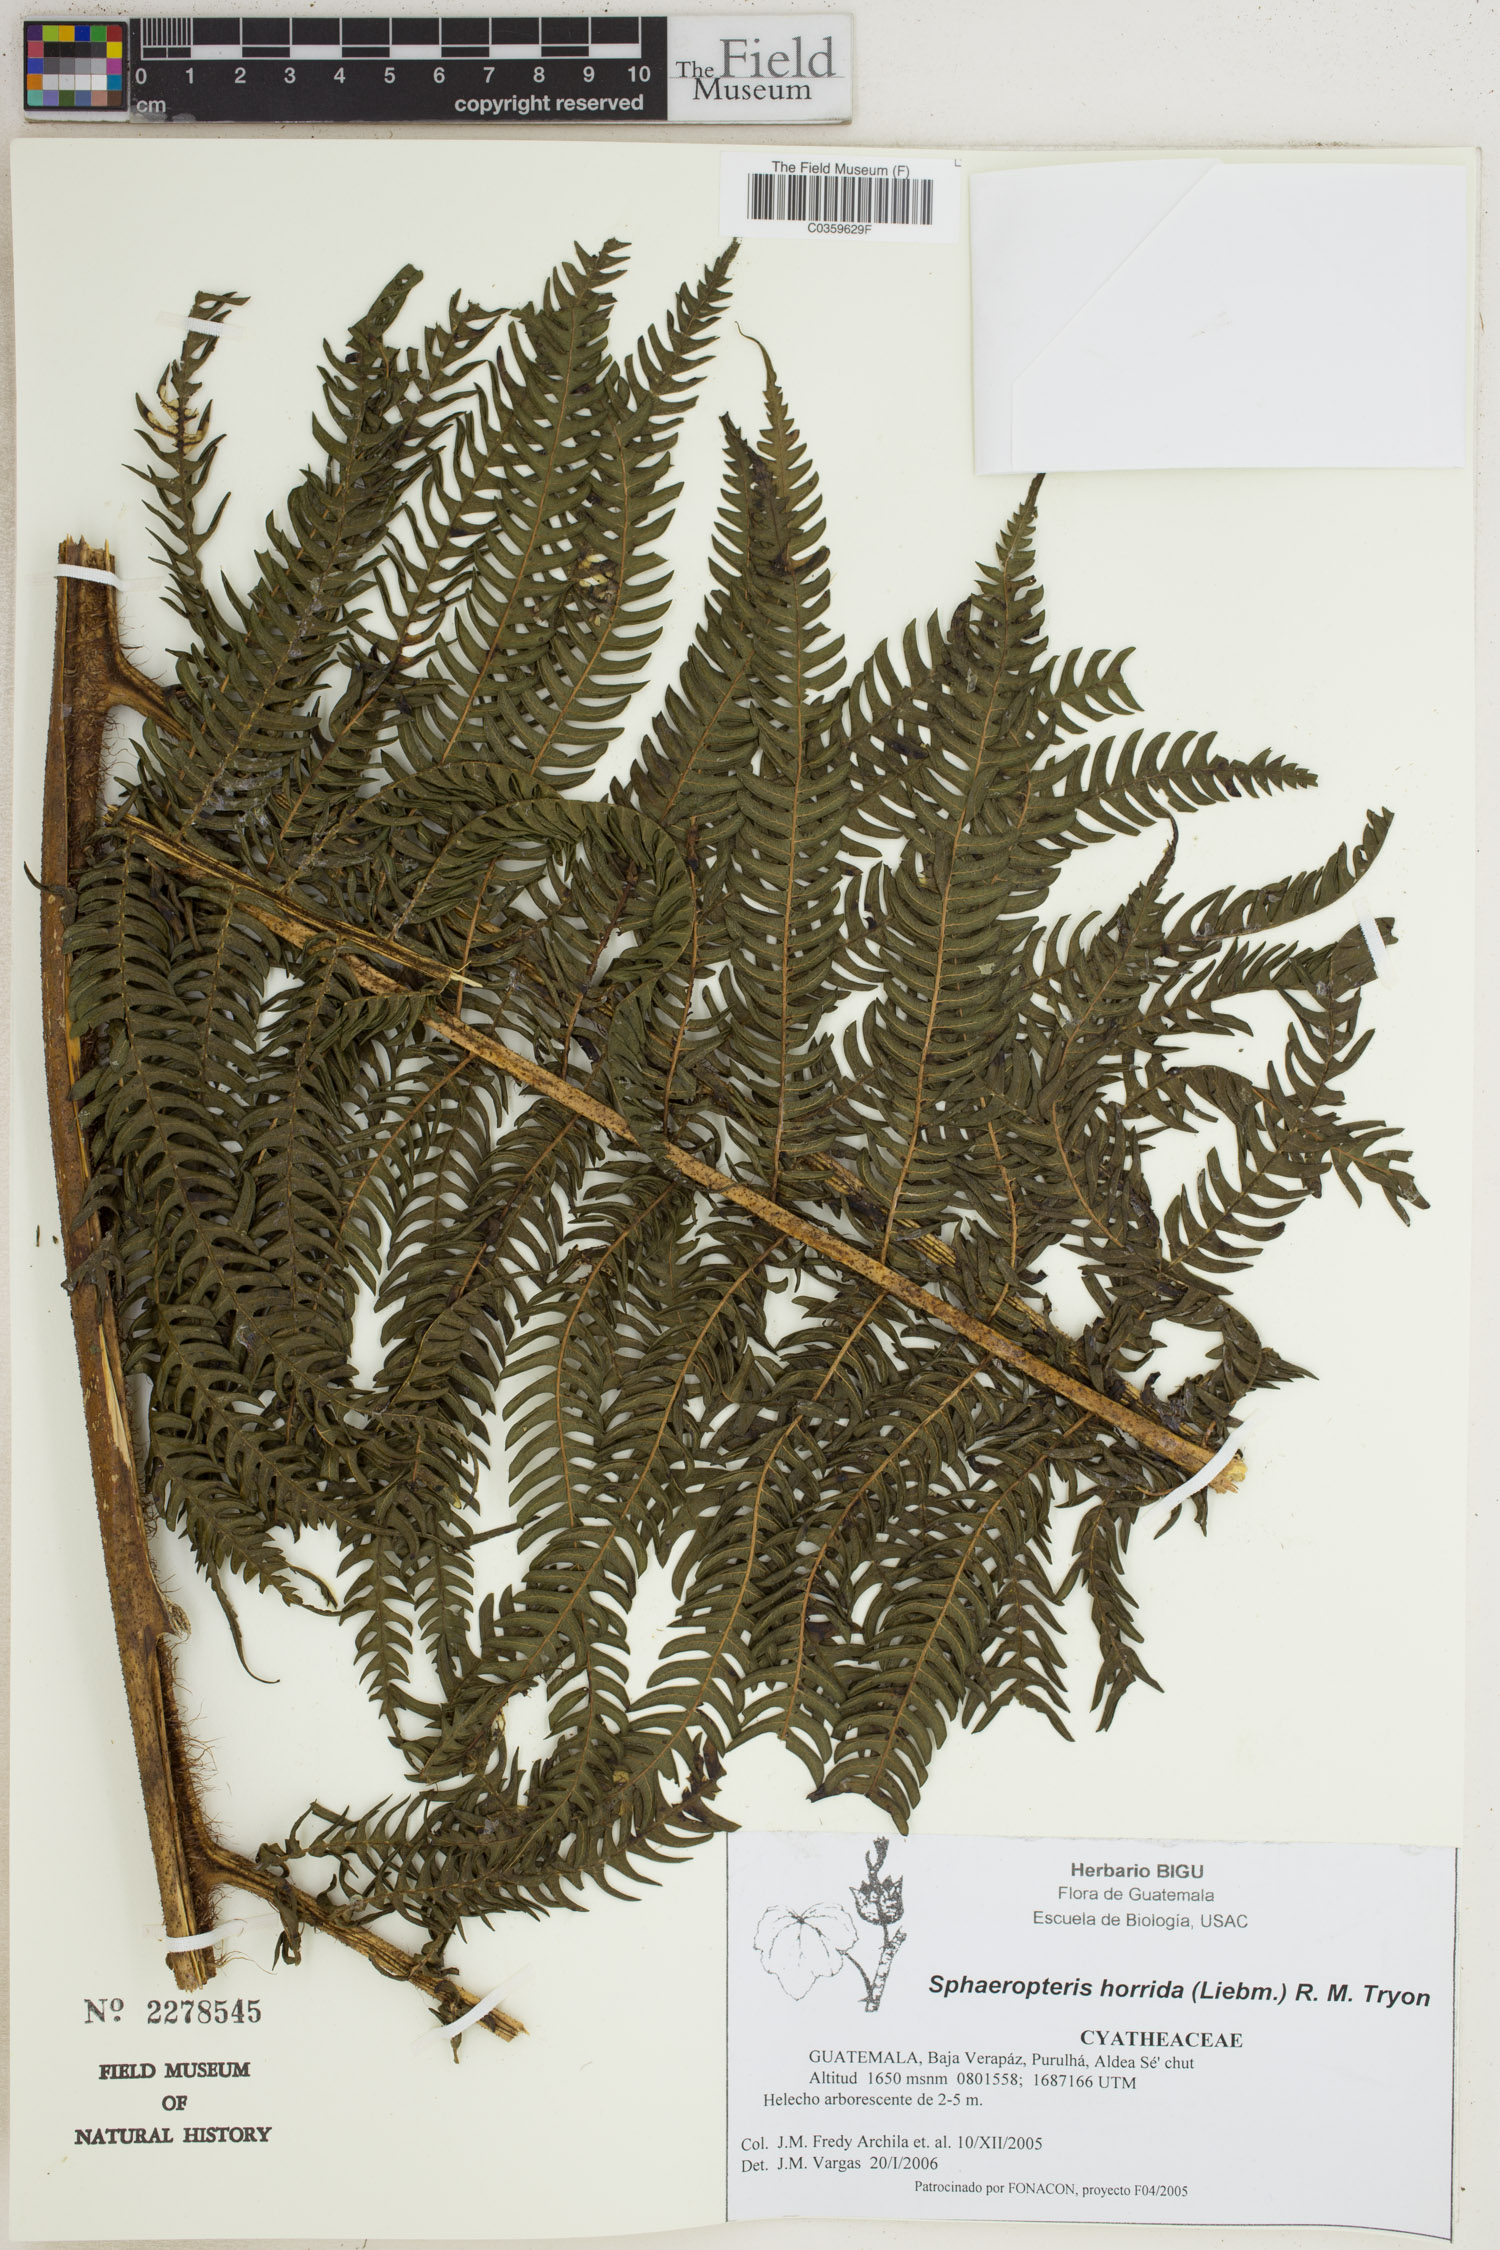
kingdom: Plantae
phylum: Tracheophyta
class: Polypodiopsida
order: Cyatheales
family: Cyatheaceae
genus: Sphaeropteris
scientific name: Sphaeropteris horrida
